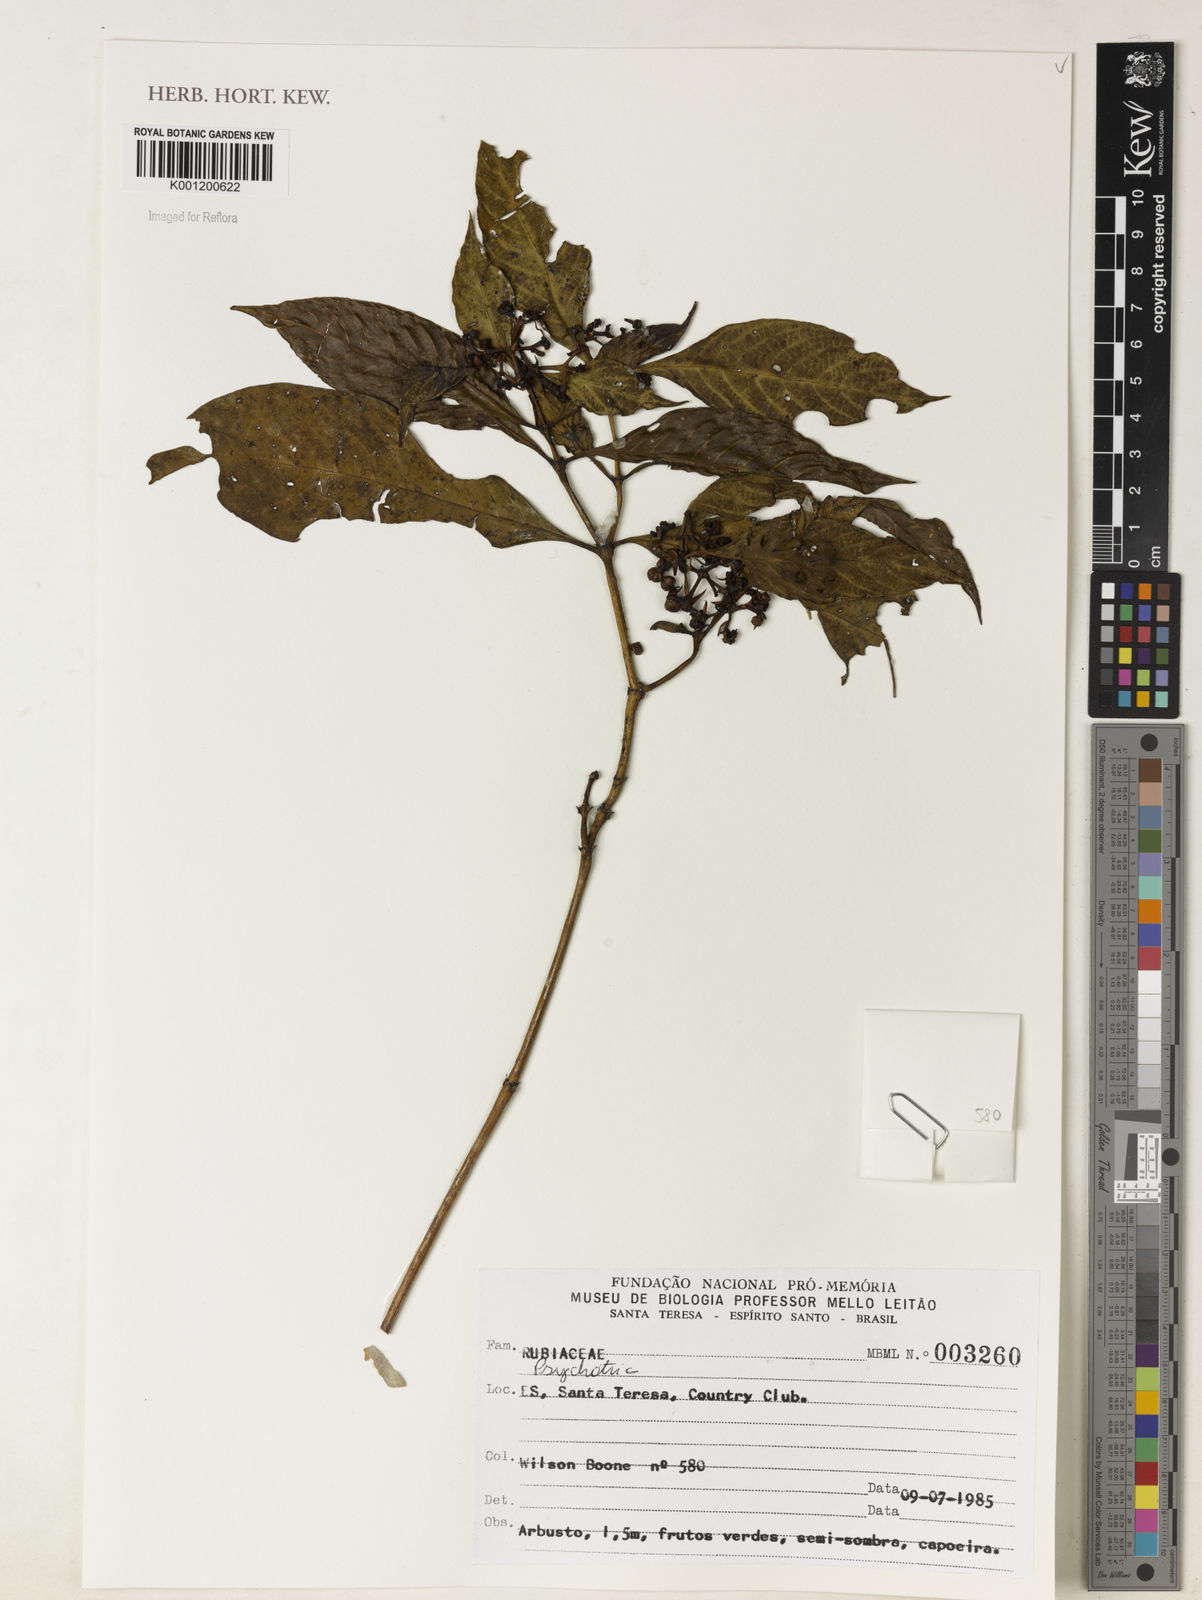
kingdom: Plantae
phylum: Tracheophyta
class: Magnoliopsida
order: Gentianales
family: Rubiaceae
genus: Psychotria
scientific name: Psychotria
